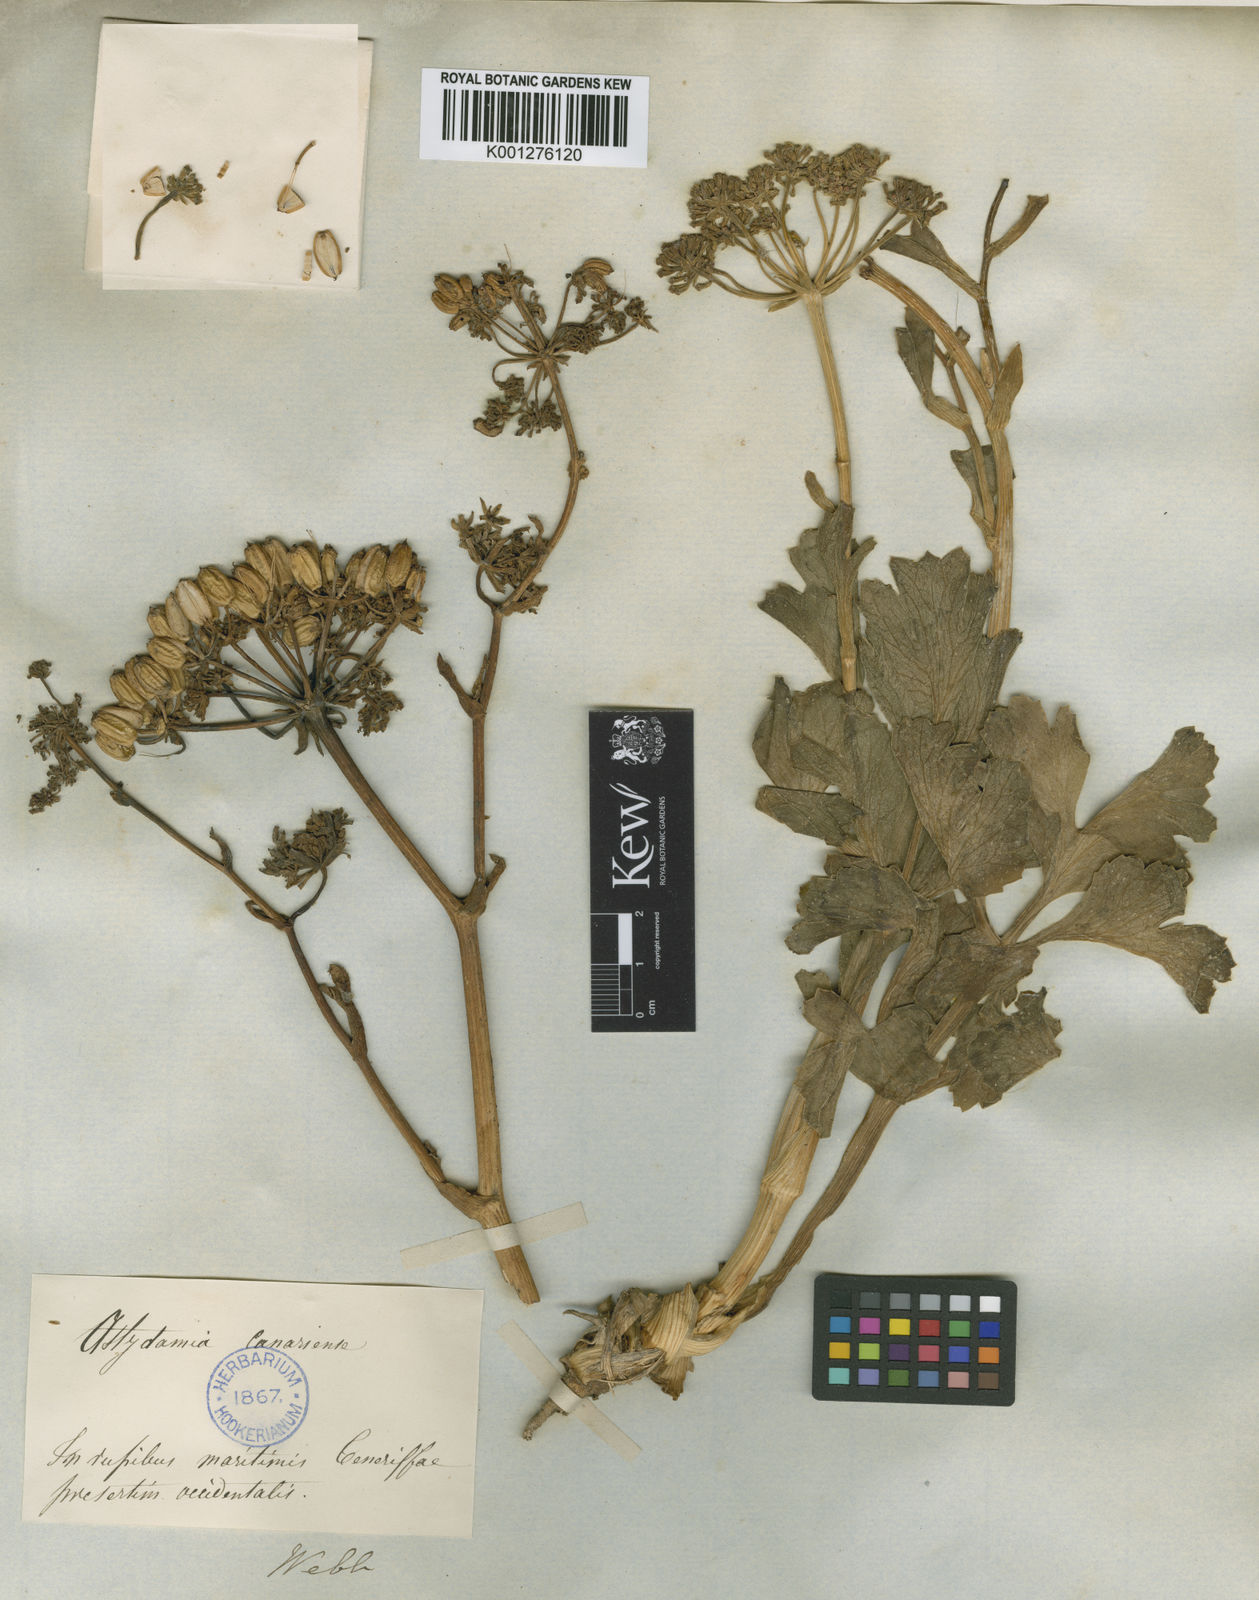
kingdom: Plantae
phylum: Tracheophyta
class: Magnoliopsida
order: Apiales
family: Apiaceae
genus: Astydamia
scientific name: Astydamia latifolia
